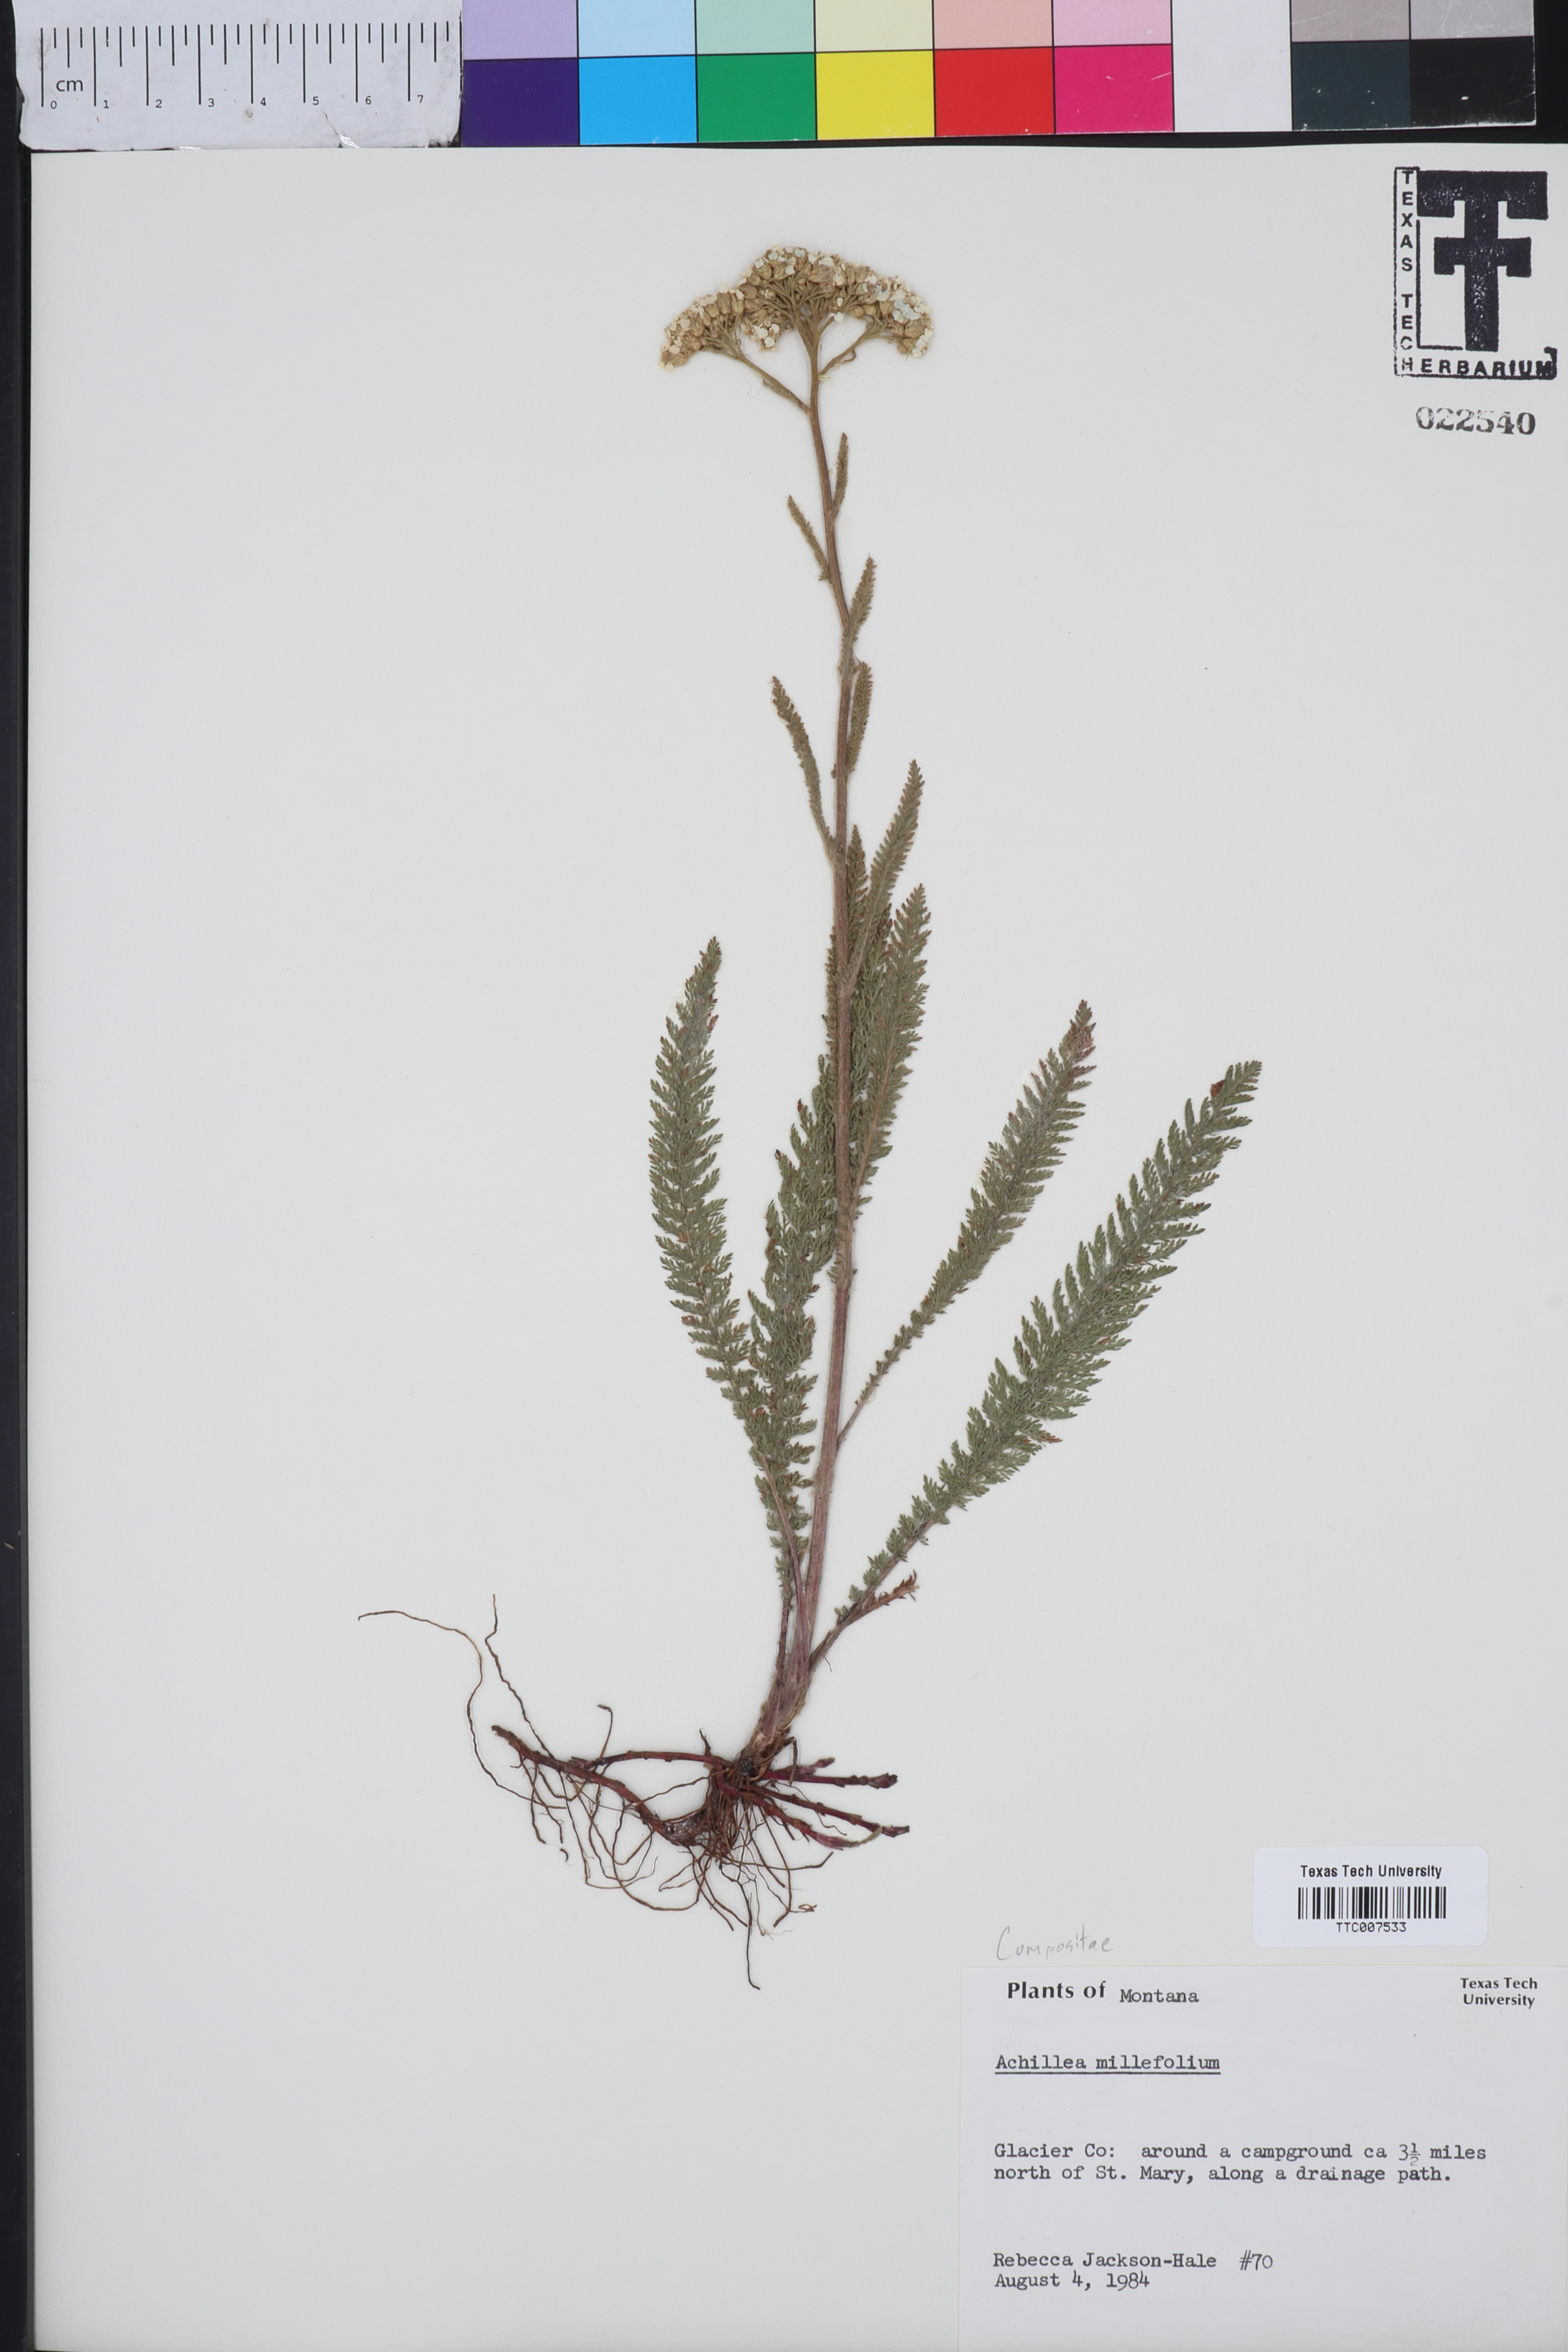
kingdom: Plantae
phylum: Tracheophyta
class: Magnoliopsida
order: Asterales
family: Asteraceae
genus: Achillea
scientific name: Achillea millefolium
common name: Yarrow
